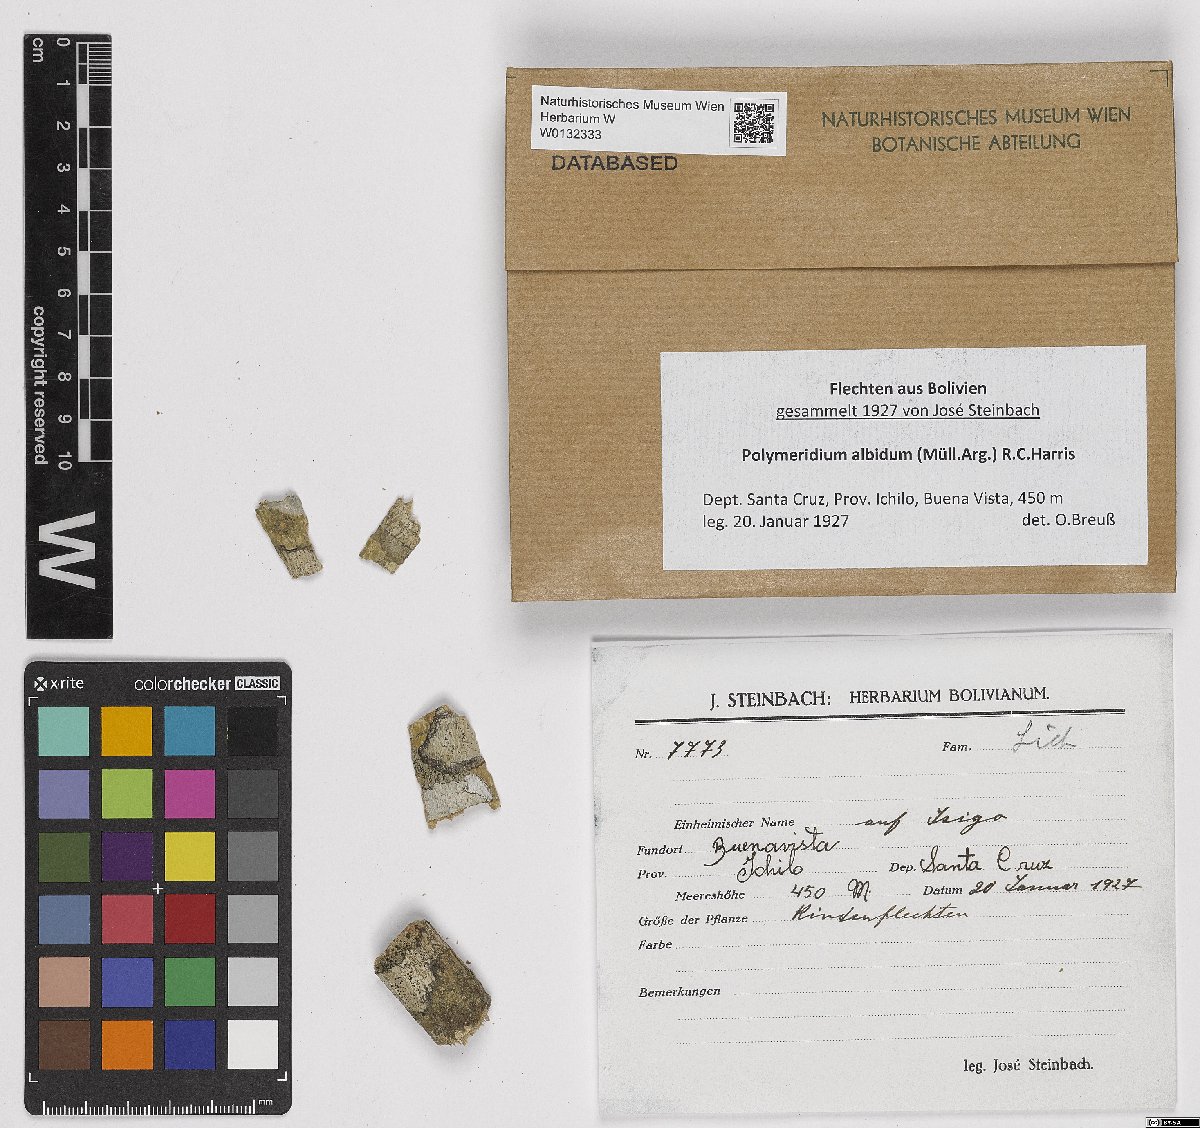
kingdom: Fungi
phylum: Ascomycota
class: Dothideomycetes
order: Trypetheliales
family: Trypetheliaceae
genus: Polymeridium
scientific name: Polymeridium albidum
